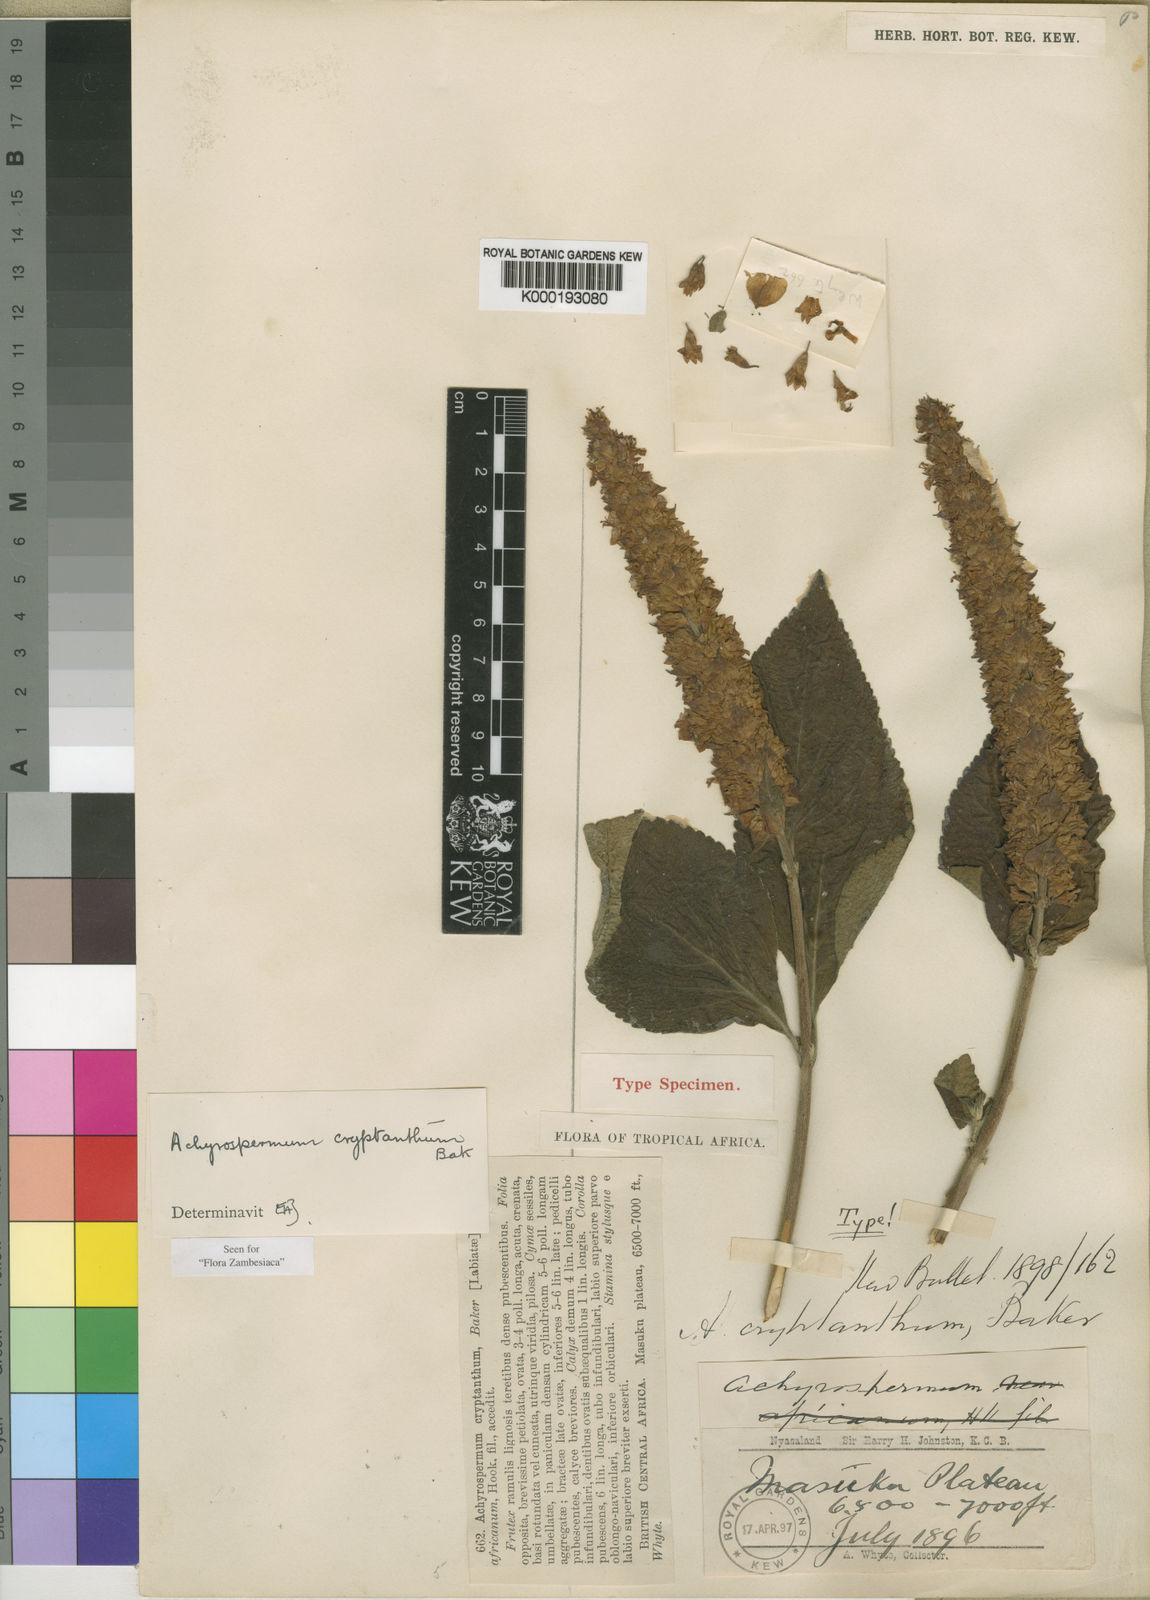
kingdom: Plantae
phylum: Tracheophyta
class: Magnoliopsida
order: Lamiales
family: Lamiaceae
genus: Achyrospermum
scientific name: Achyrospermum cryptanthum
